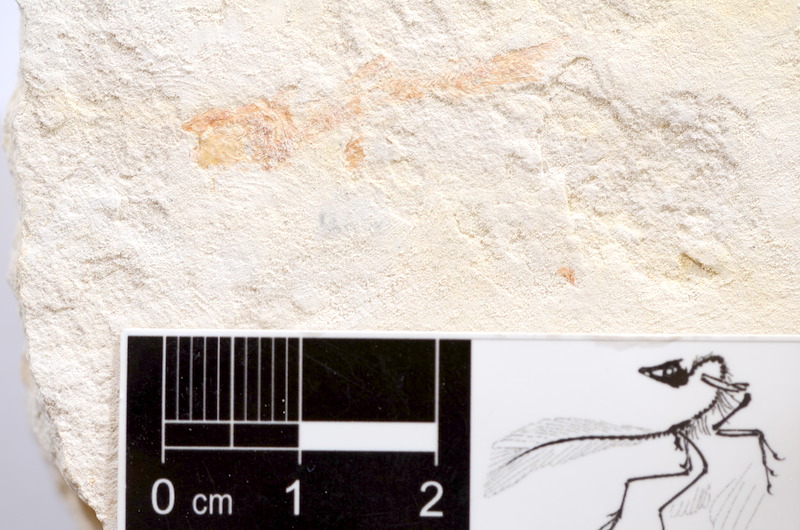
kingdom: Animalia
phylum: Chordata
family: Ascalaboidae
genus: Tharsis
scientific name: Tharsis dubius
